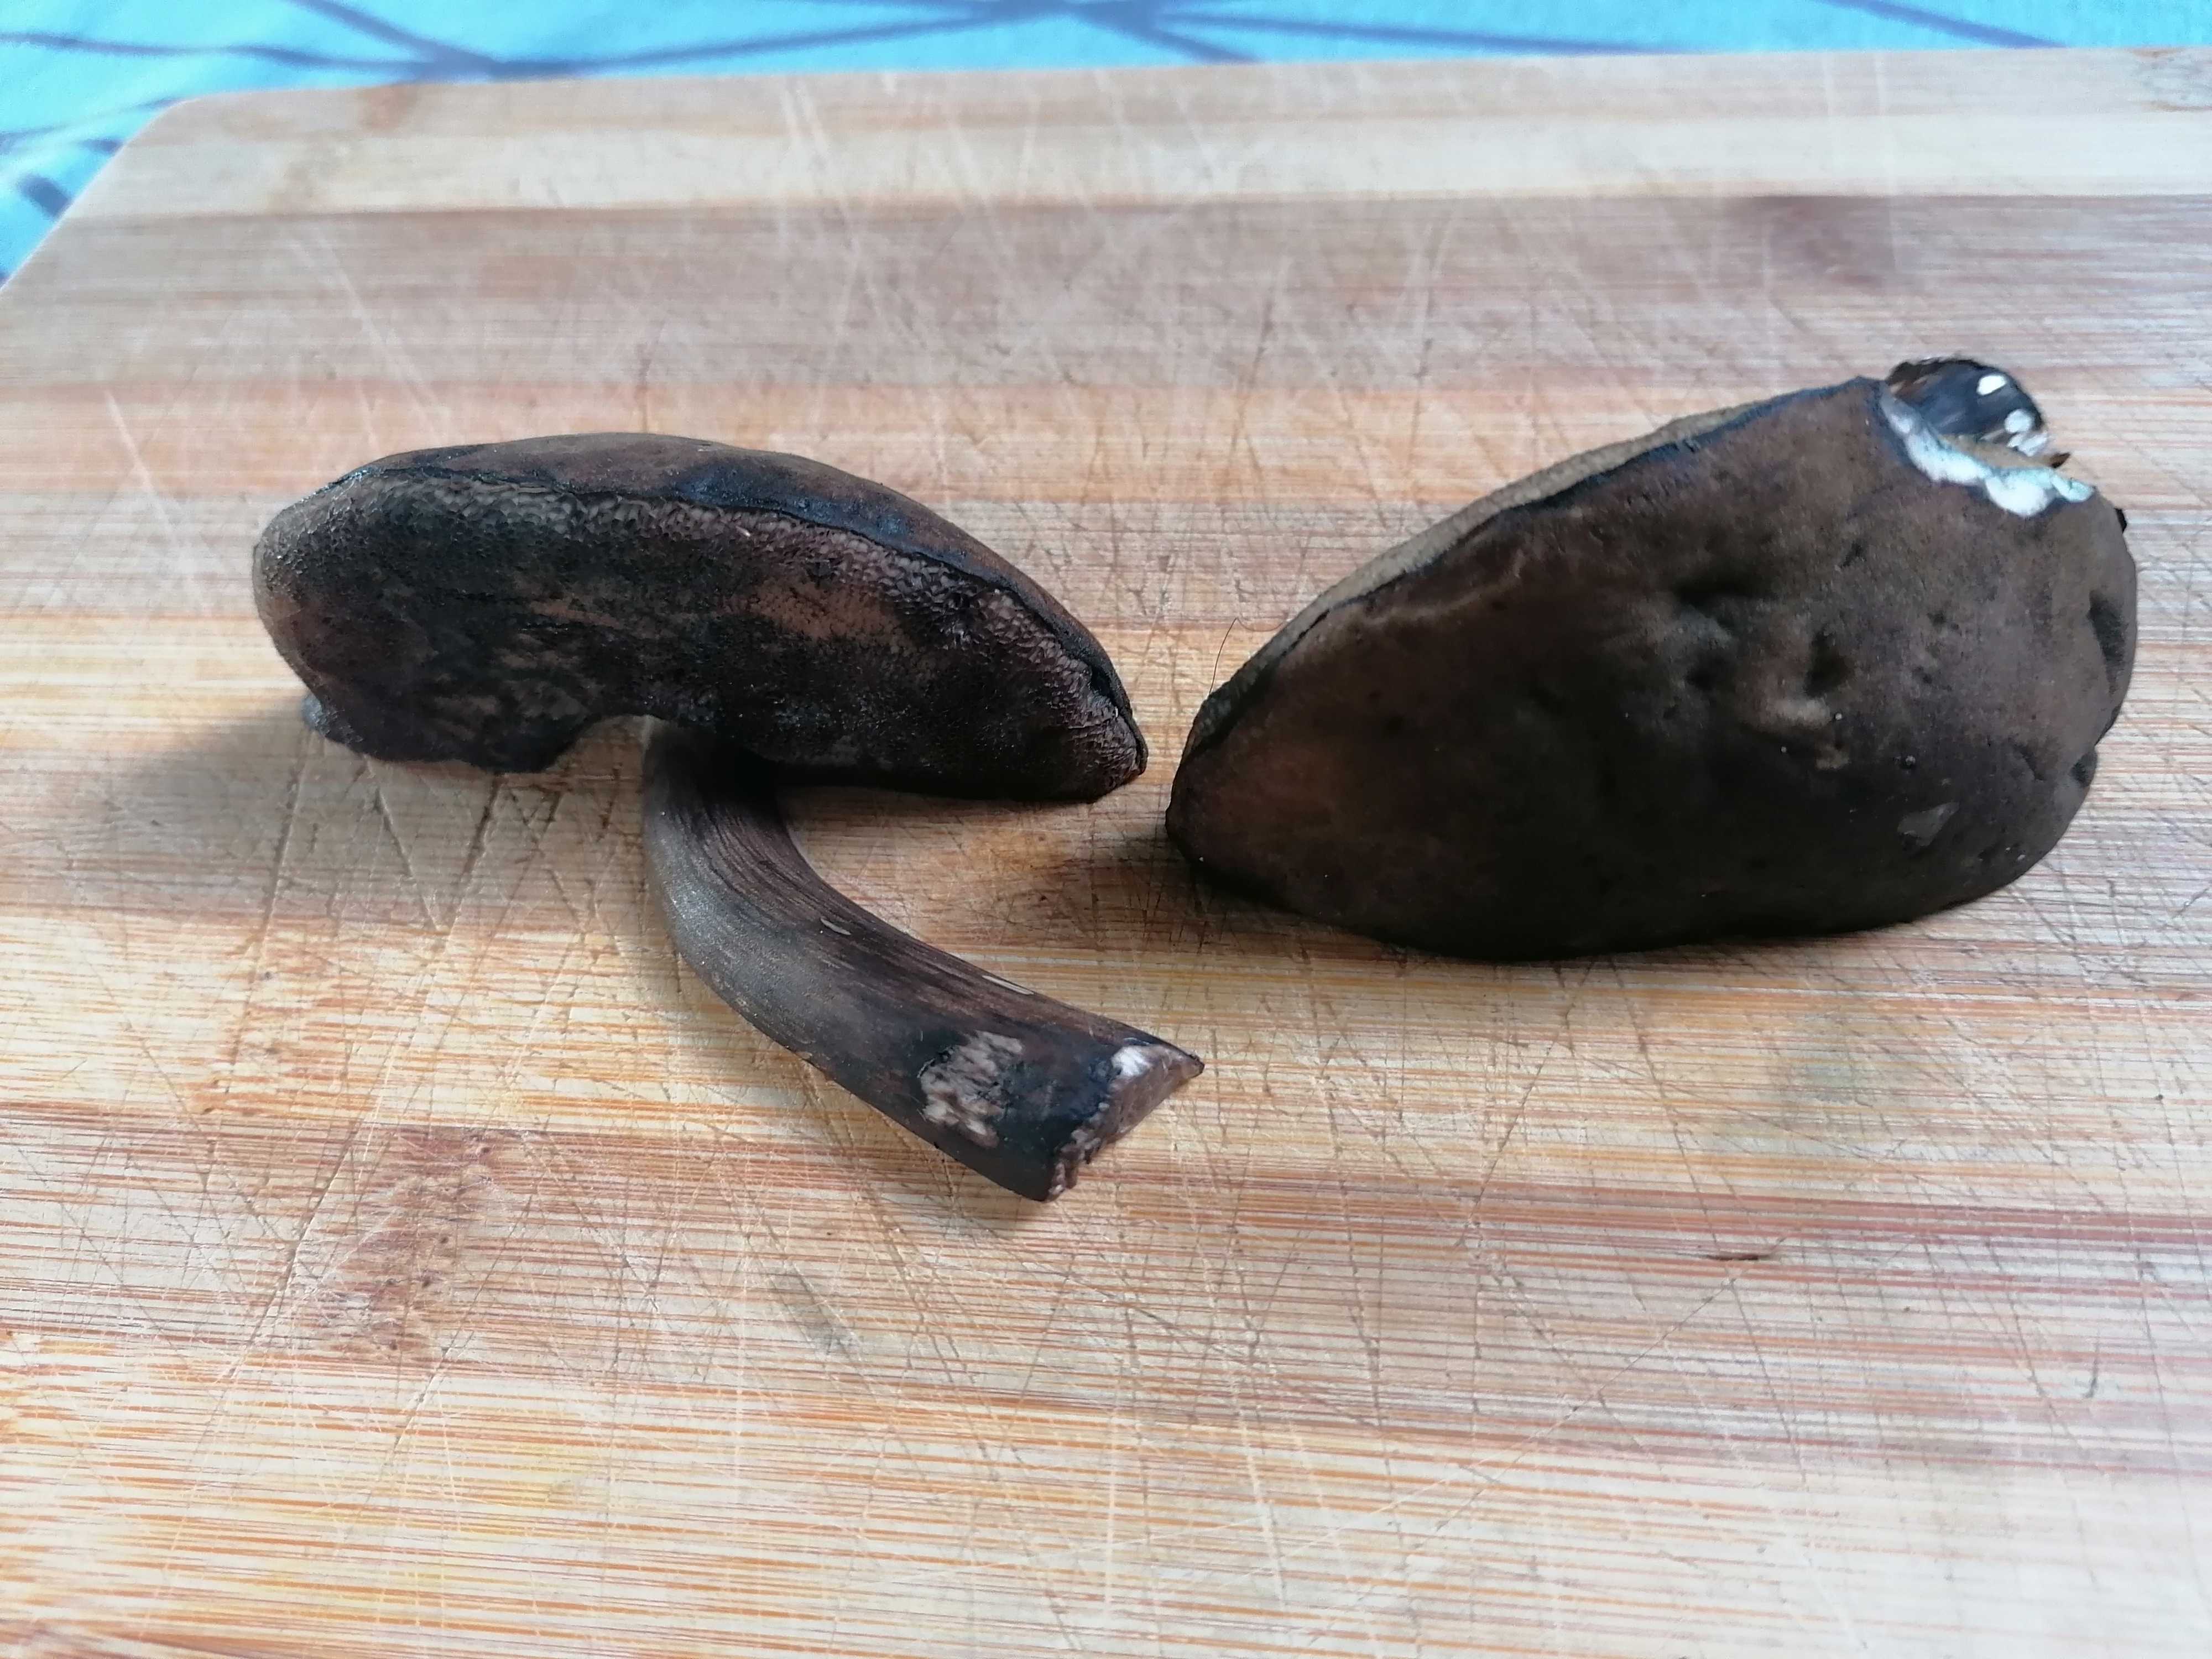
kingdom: Fungi
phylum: Basidiomycota
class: Agaricomycetes
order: Boletales
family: Boletaceae
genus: Porphyrellus
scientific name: Porphyrellus porphyrosporus
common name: sodrørhat
